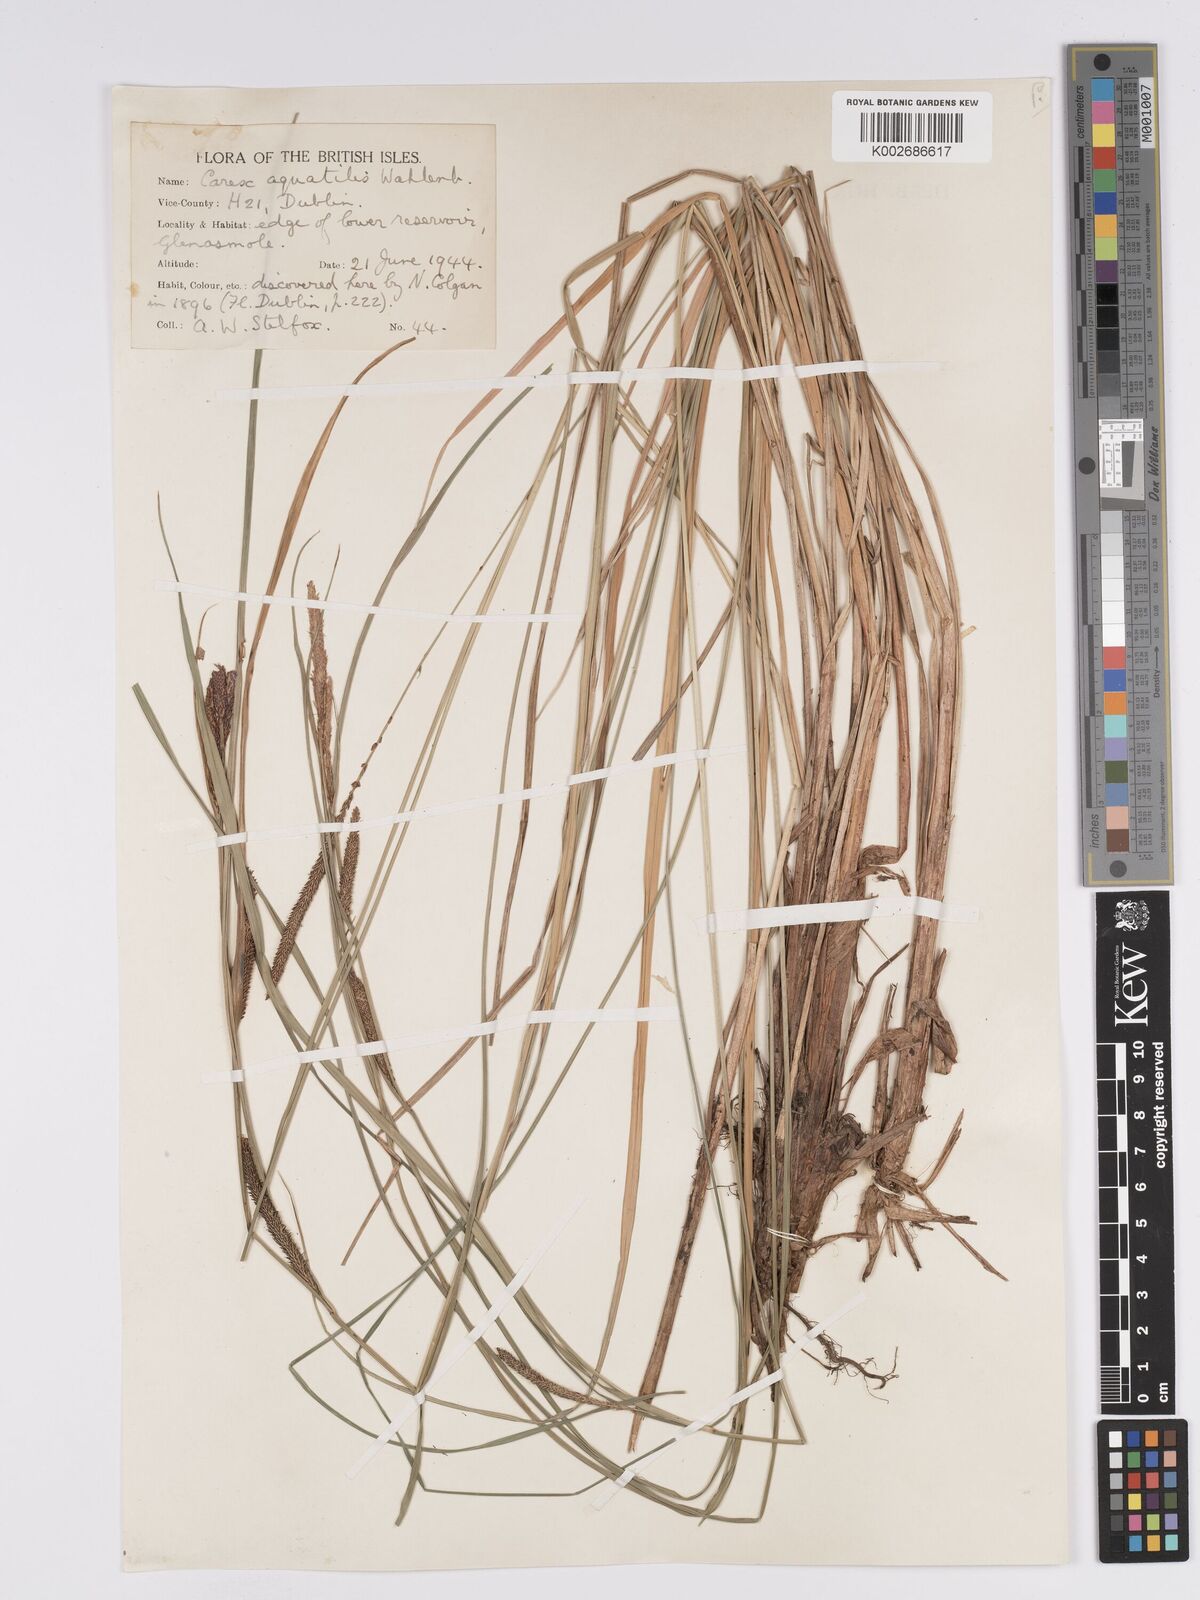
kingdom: Plantae
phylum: Tracheophyta
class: Liliopsida
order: Poales
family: Cyperaceae
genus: Carex
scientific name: Carex aquatilis
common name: Water sedge
